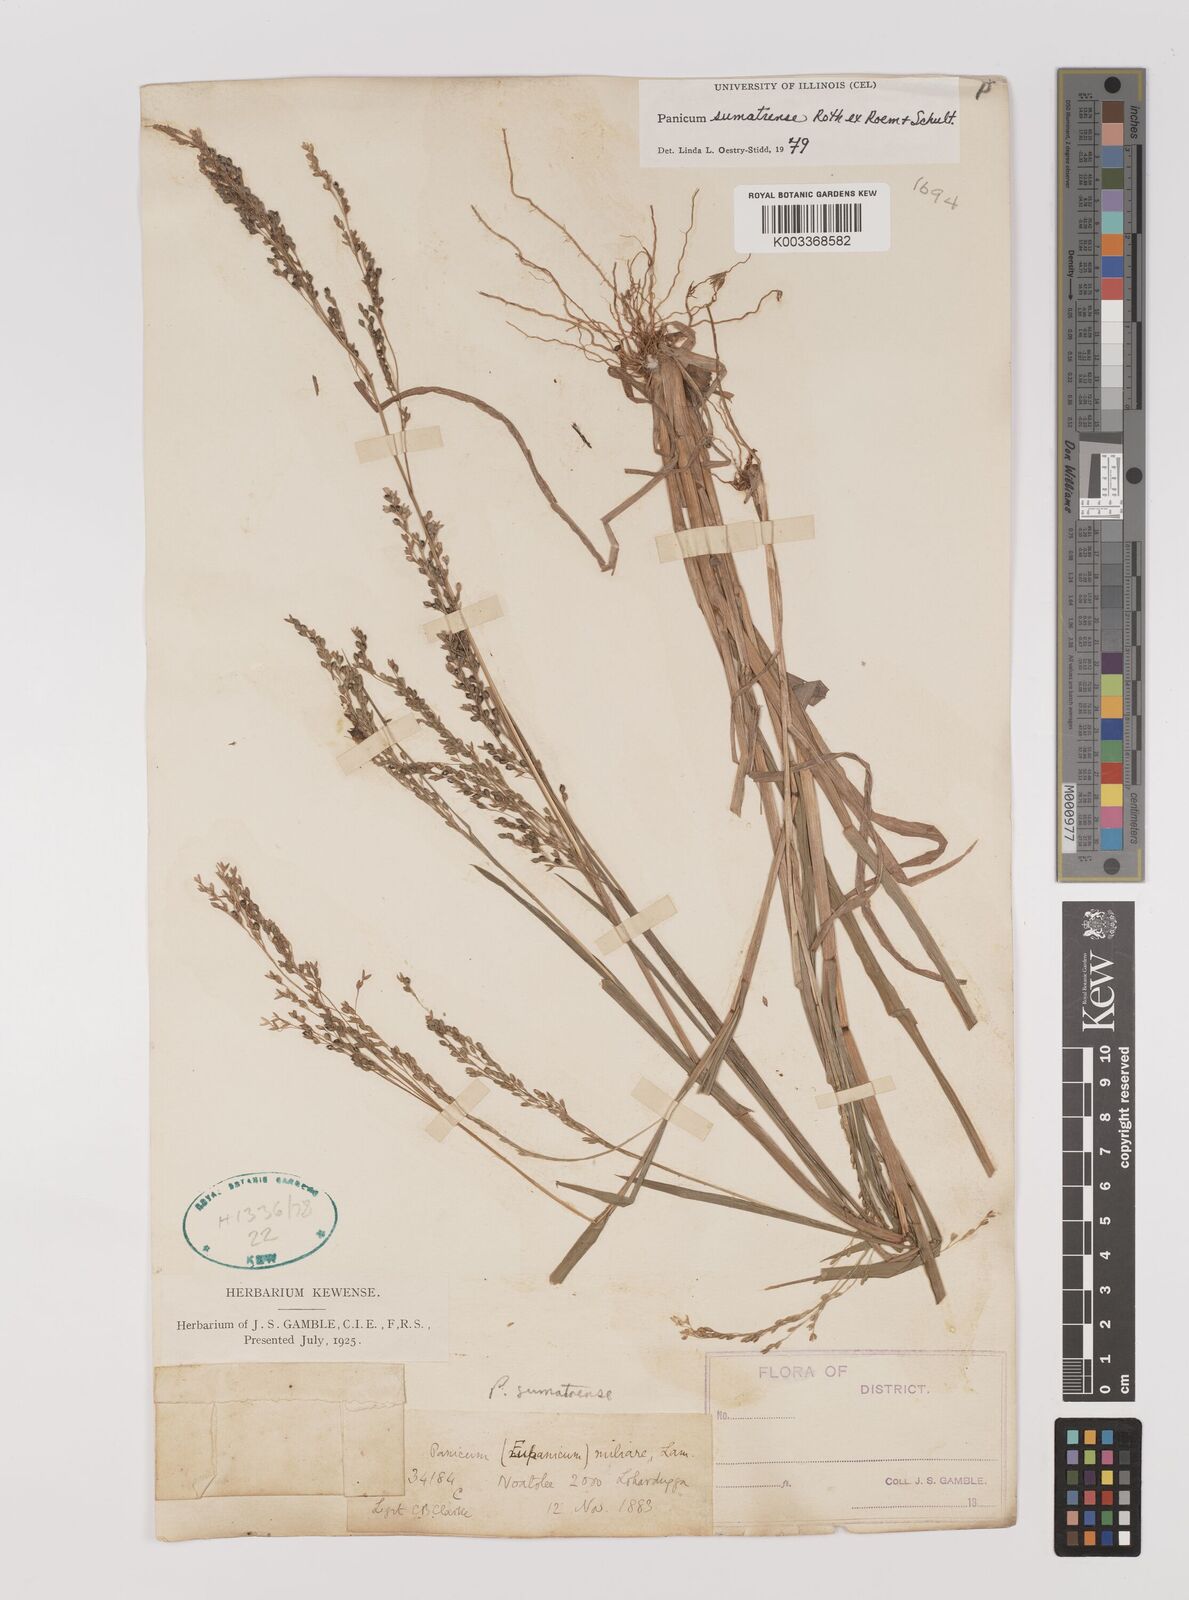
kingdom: Plantae
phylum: Tracheophyta
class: Liliopsida
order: Poales
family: Poaceae
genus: Panicum
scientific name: Panicum sumatrense
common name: Little millet
